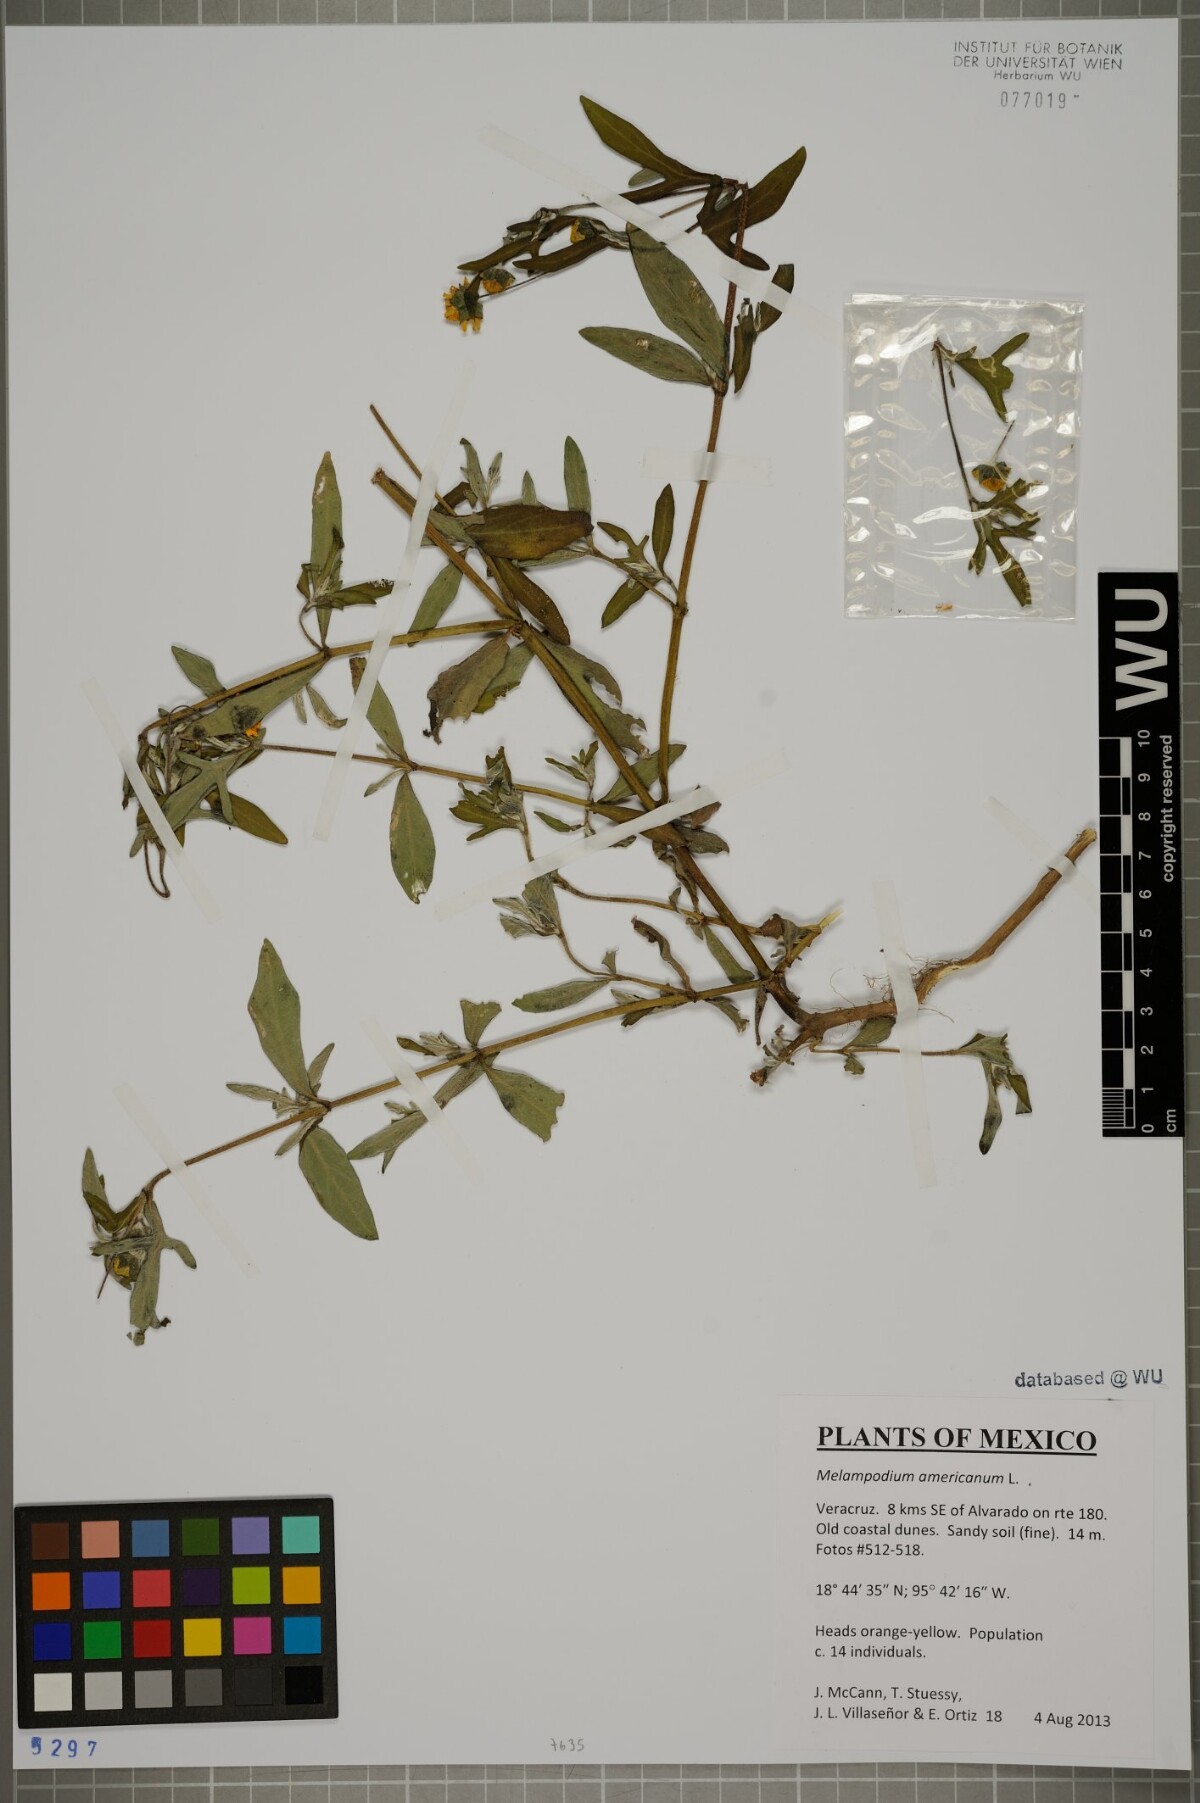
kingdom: Plantae
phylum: Tracheophyta
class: Magnoliopsida
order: Asterales
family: Asteraceae
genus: Melampodium
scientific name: Melampodium americanum
